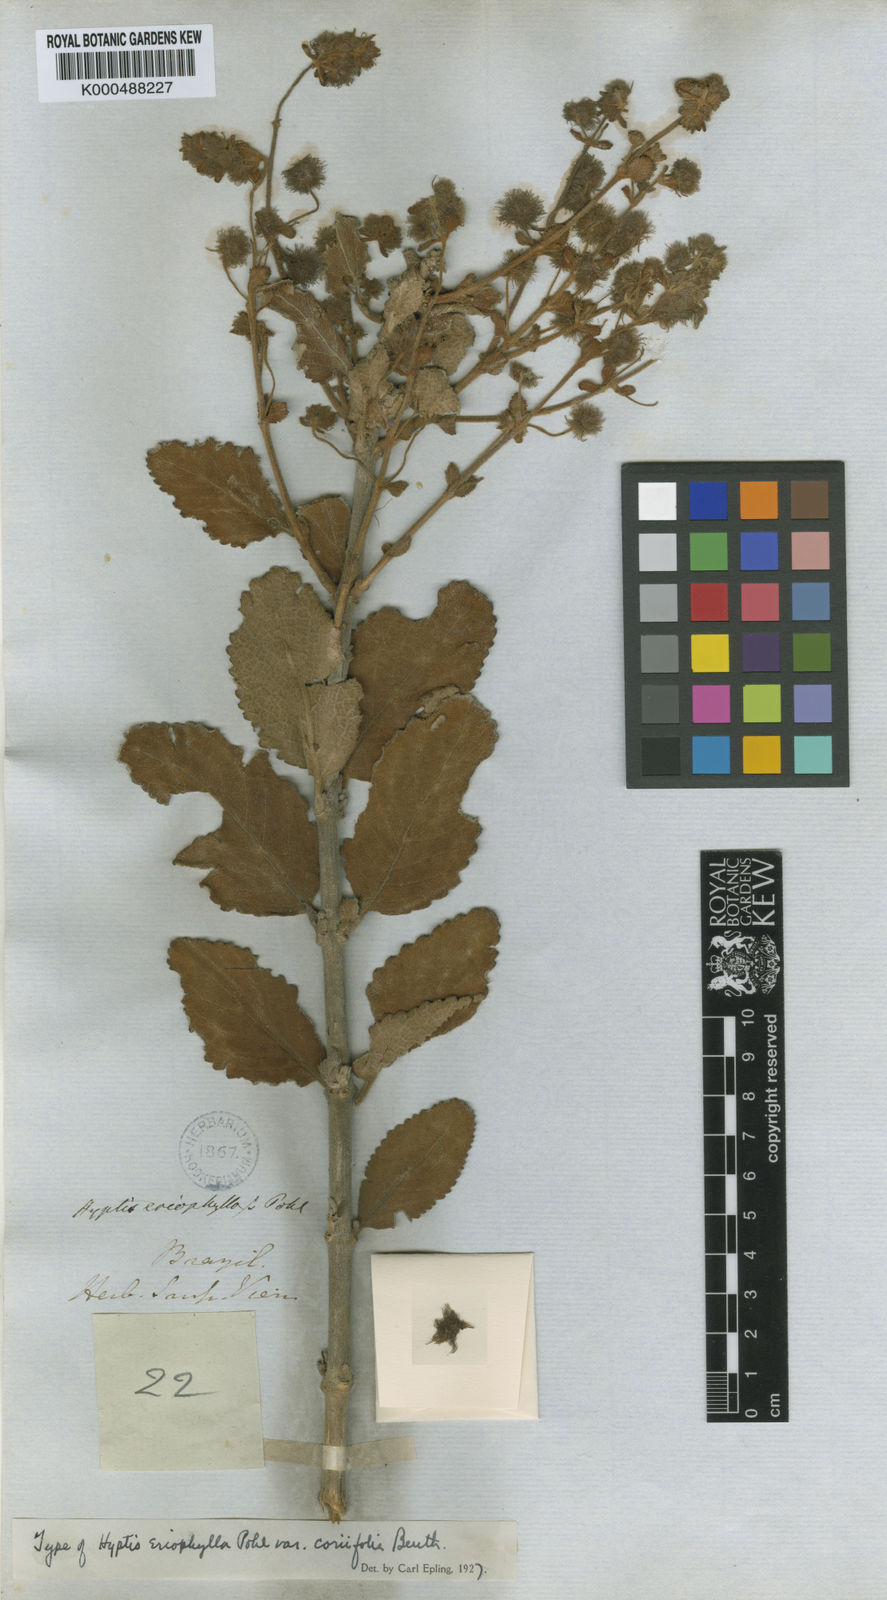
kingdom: Plantae
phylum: Tracheophyta
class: Magnoliopsida
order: Lamiales
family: Lamiaceae
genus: Medusantha
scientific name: Medusantha eriophylla
